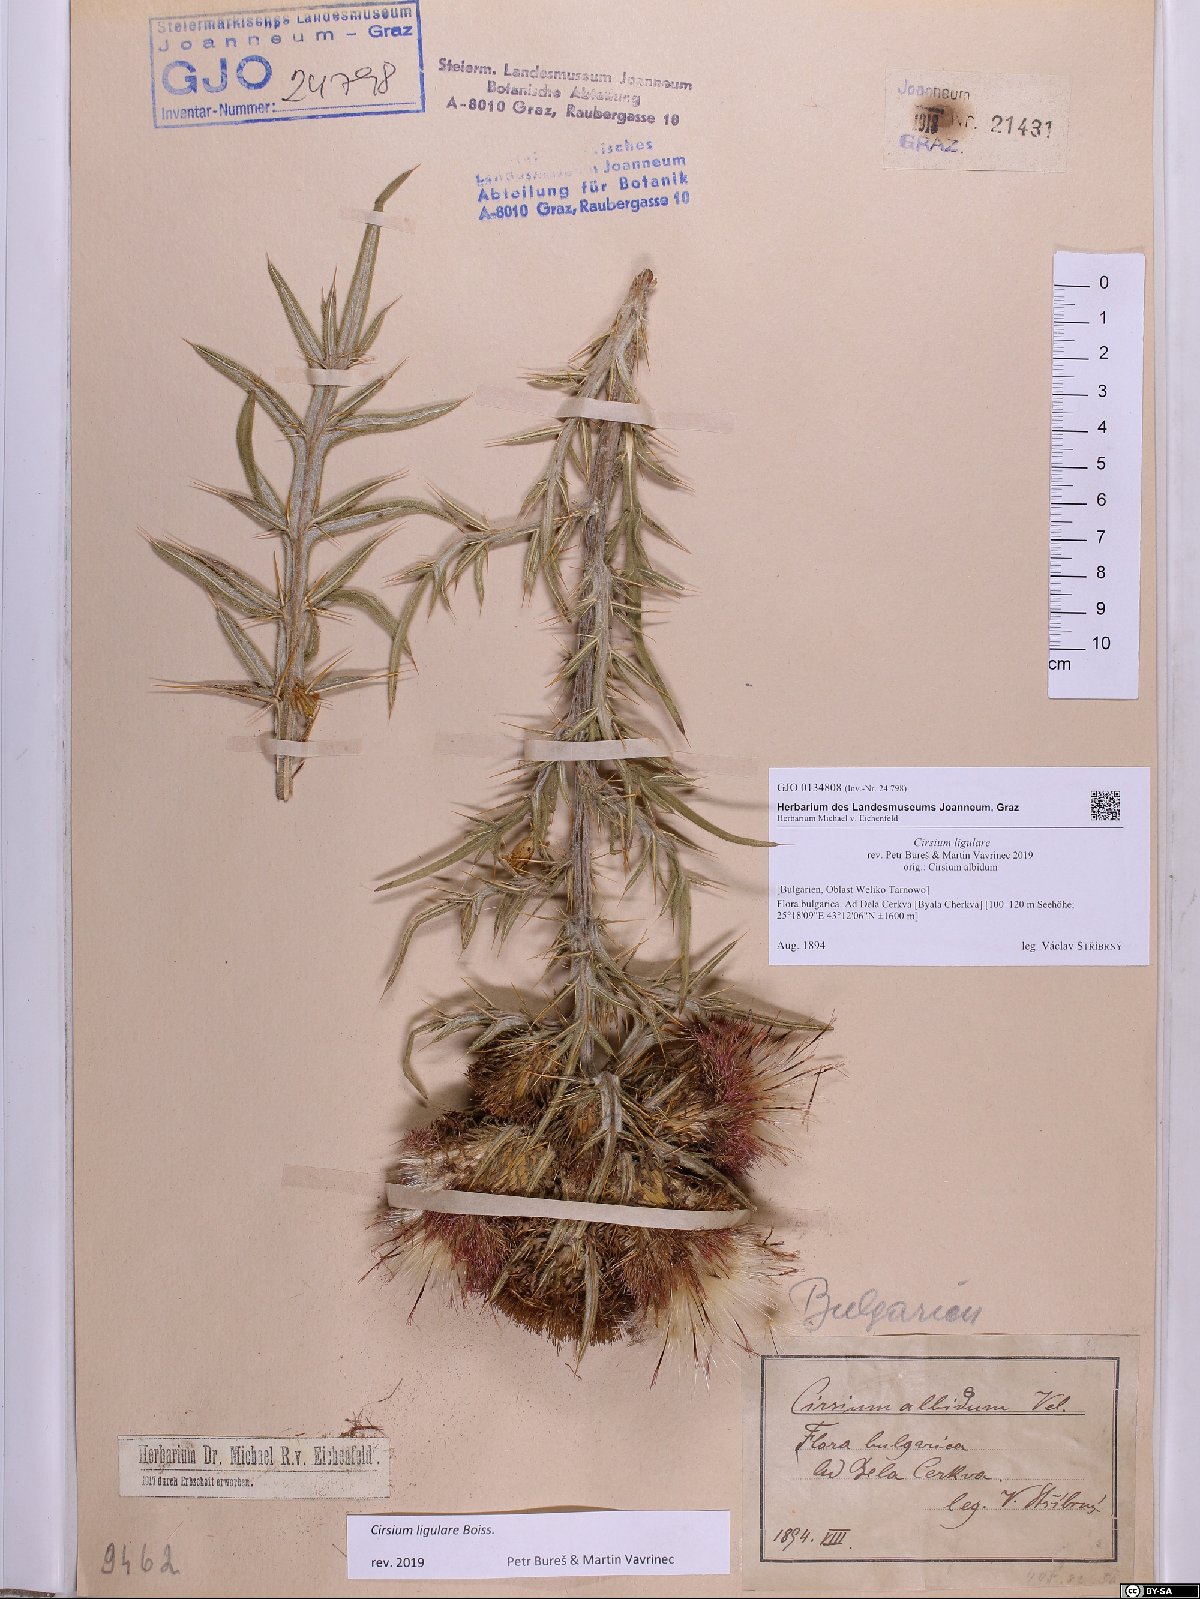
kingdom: Plantae
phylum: Tracheophyta
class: Magnoliopsida
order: Asterales
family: Asteraceae
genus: Lophiolepis
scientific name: Lophiolepis ligularis
